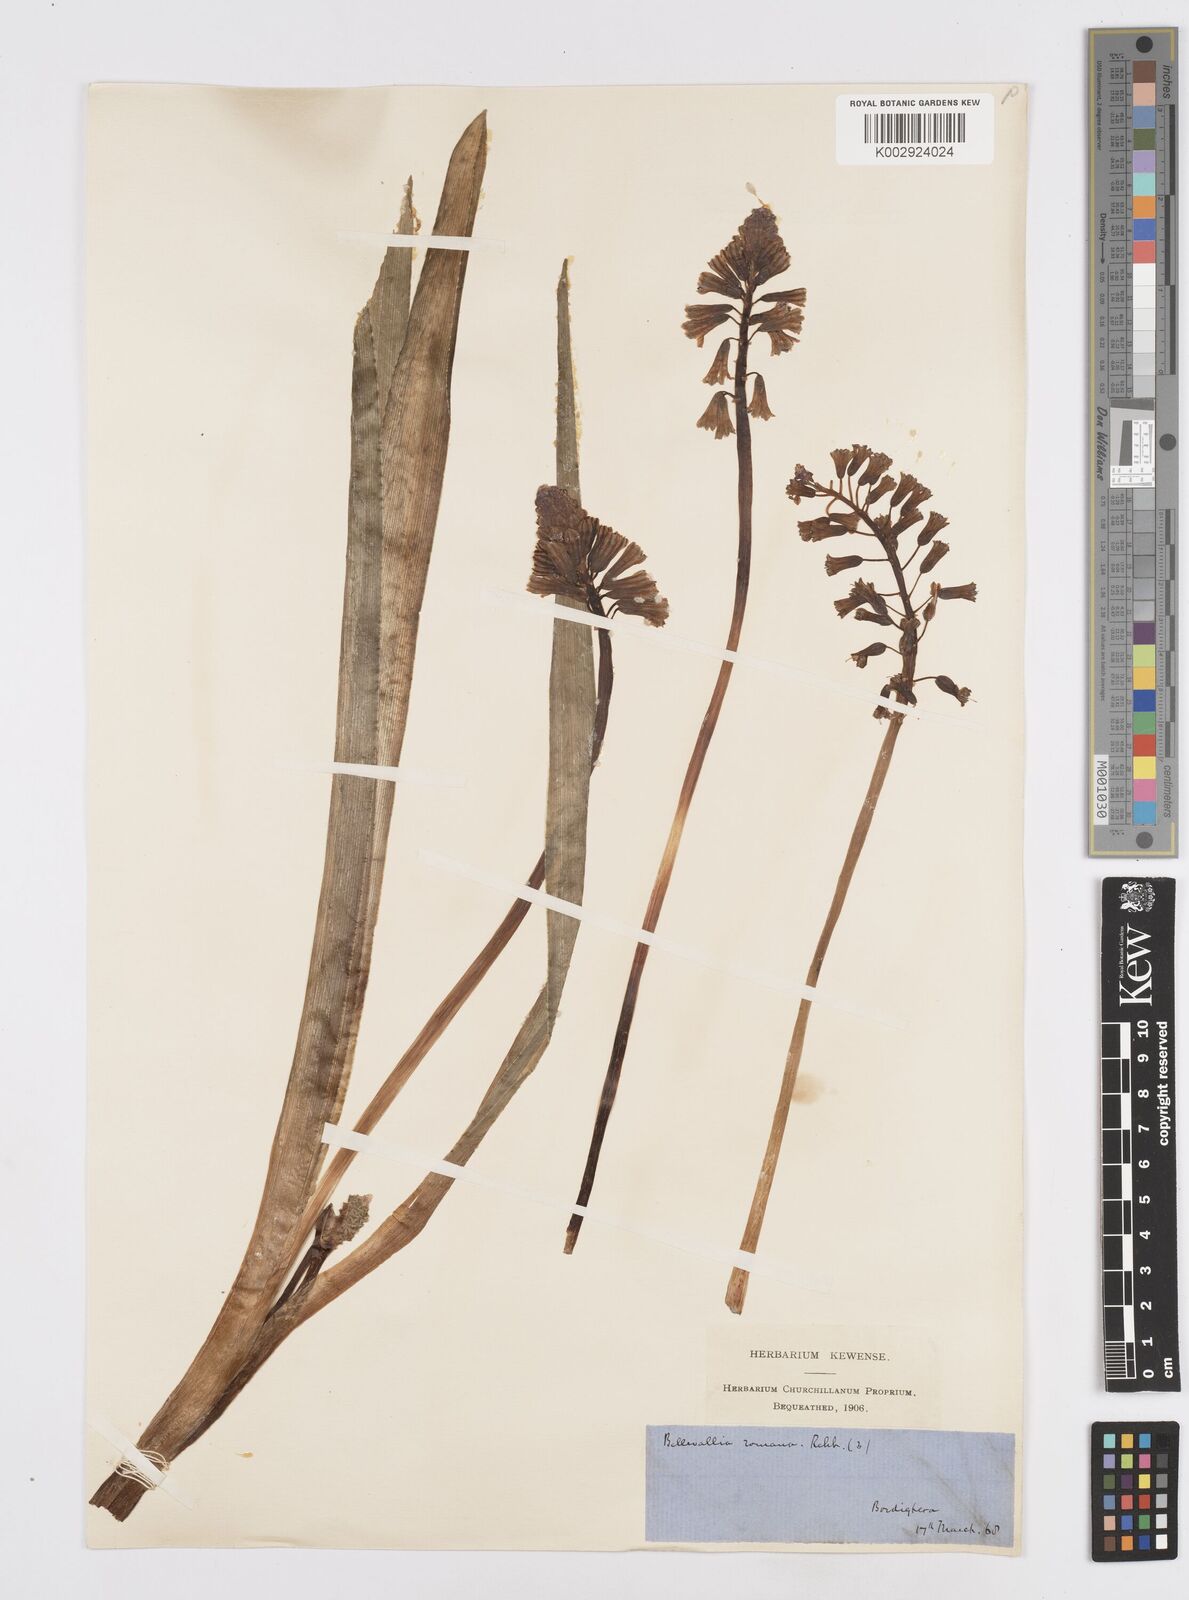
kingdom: Plantae
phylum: Tracheophyta
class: Liliopsida
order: Asparagales
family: Asparagaceae
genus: Bellevalia
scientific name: Bellevalia trifoliata
